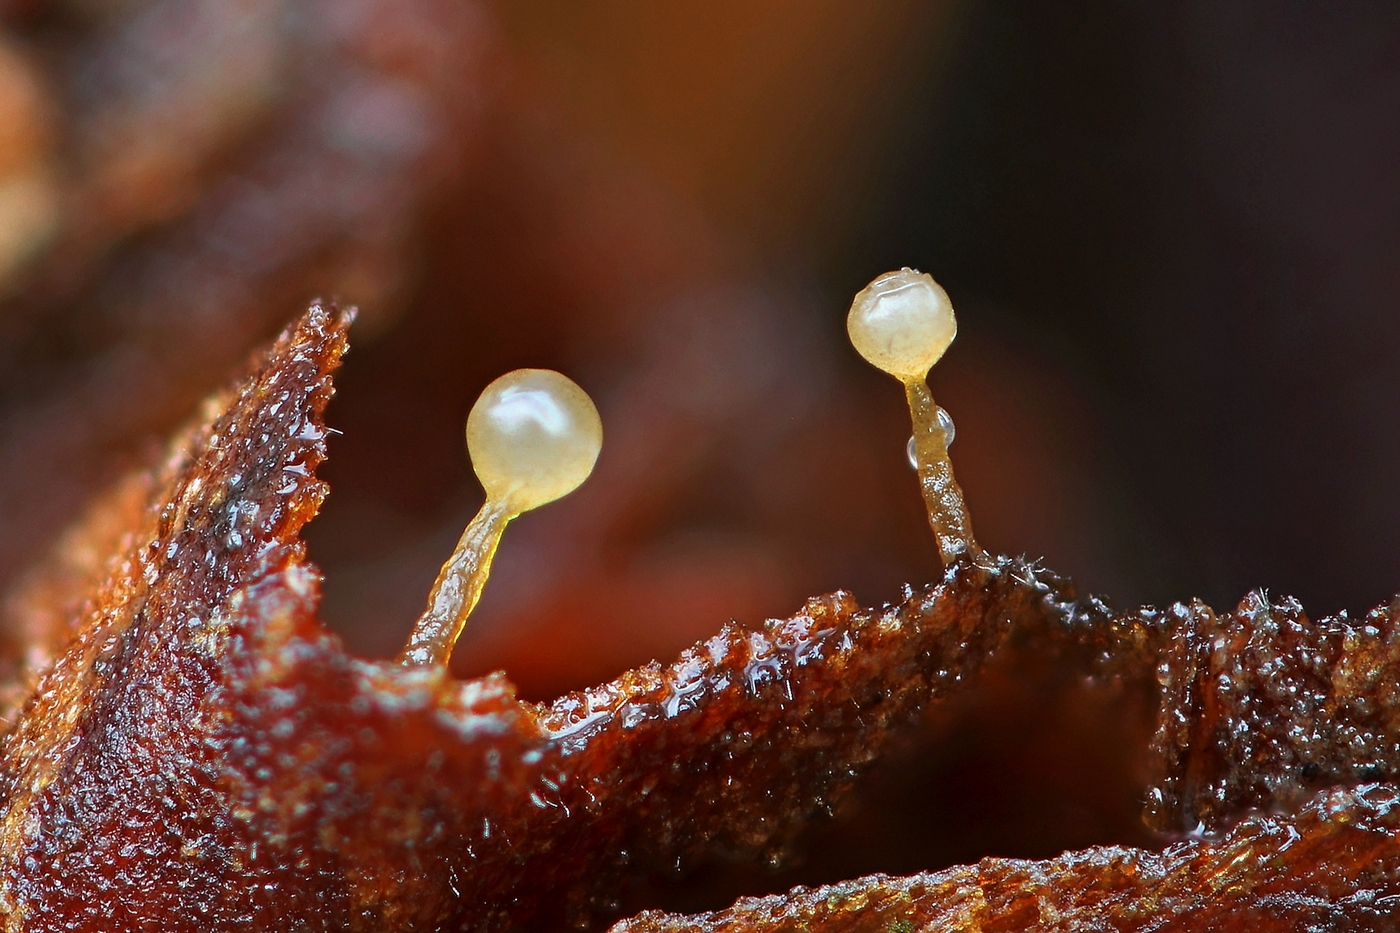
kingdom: Protozoa
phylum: Mycetozoa
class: Myxomycetes
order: Trichiales
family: Trichiaceae
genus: Trichia
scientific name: Trichia munda
